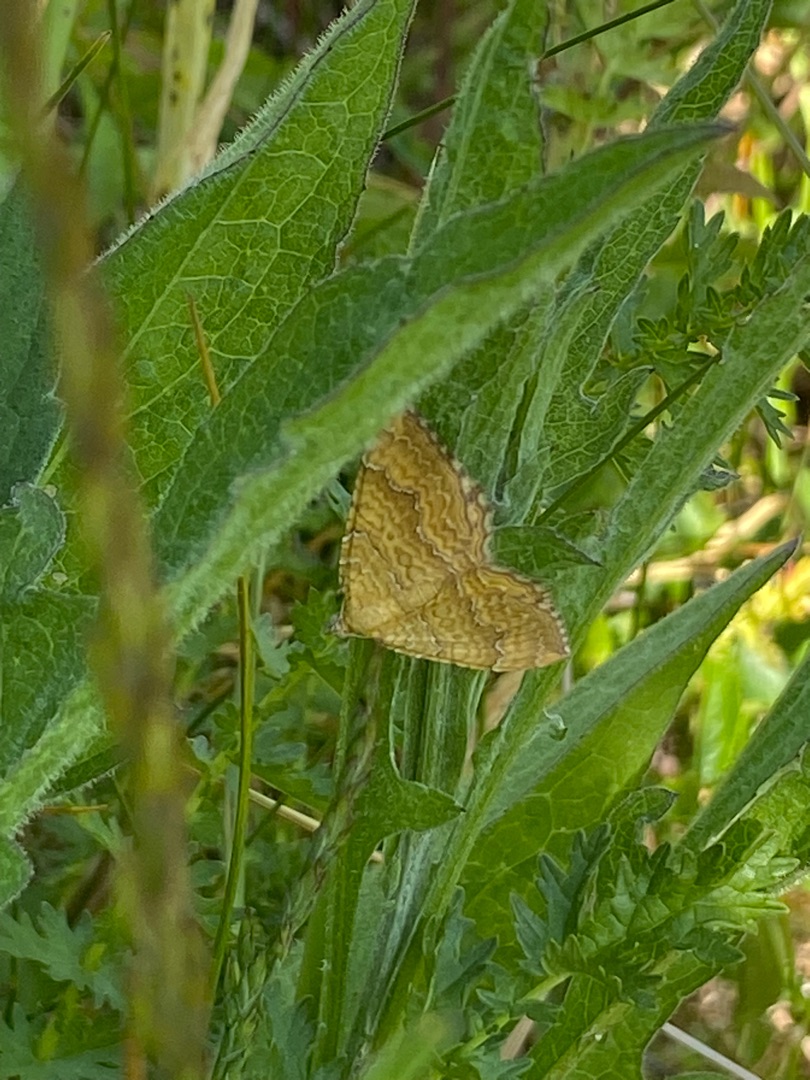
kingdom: Animalia
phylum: Arthropoda
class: Insecta
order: Lepidoptera
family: Geometridae
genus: Camptogramma
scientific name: Camptogramma bilineata
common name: Okkergul bladmåler
